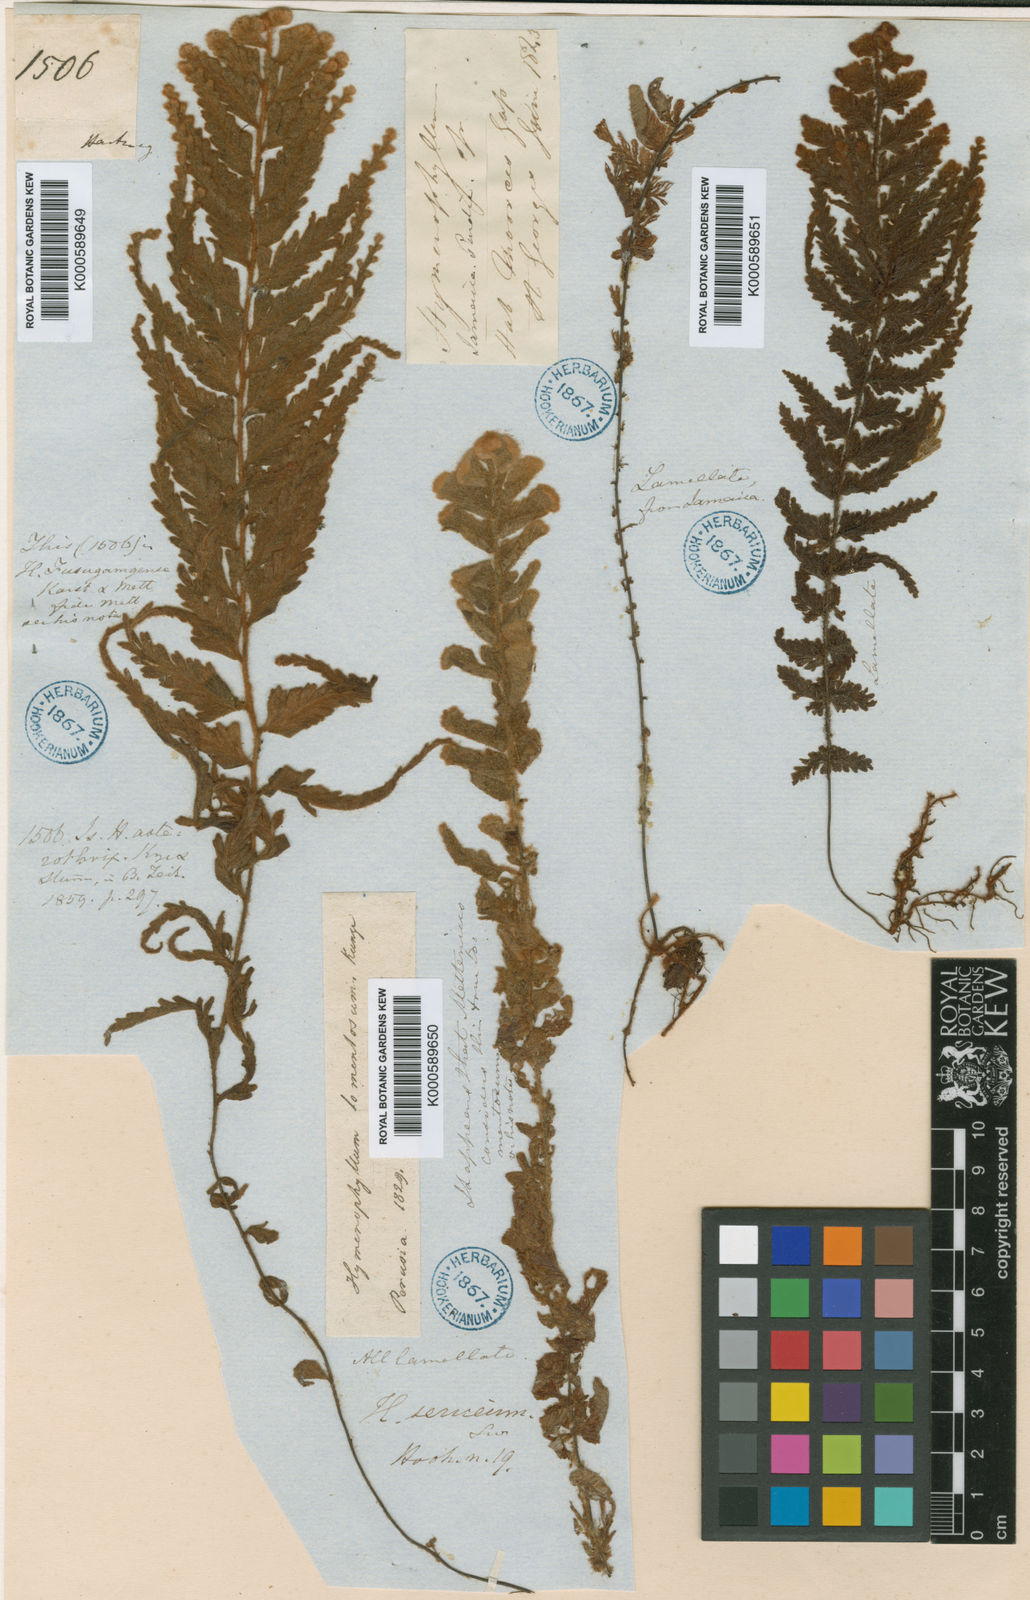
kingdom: Plantae
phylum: Tracheophyta
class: Polypodiopsida
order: Hymenophyllales
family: Hymenophyllaceae
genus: Hymenophyllum
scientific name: Hymenophyllum tomentosum
